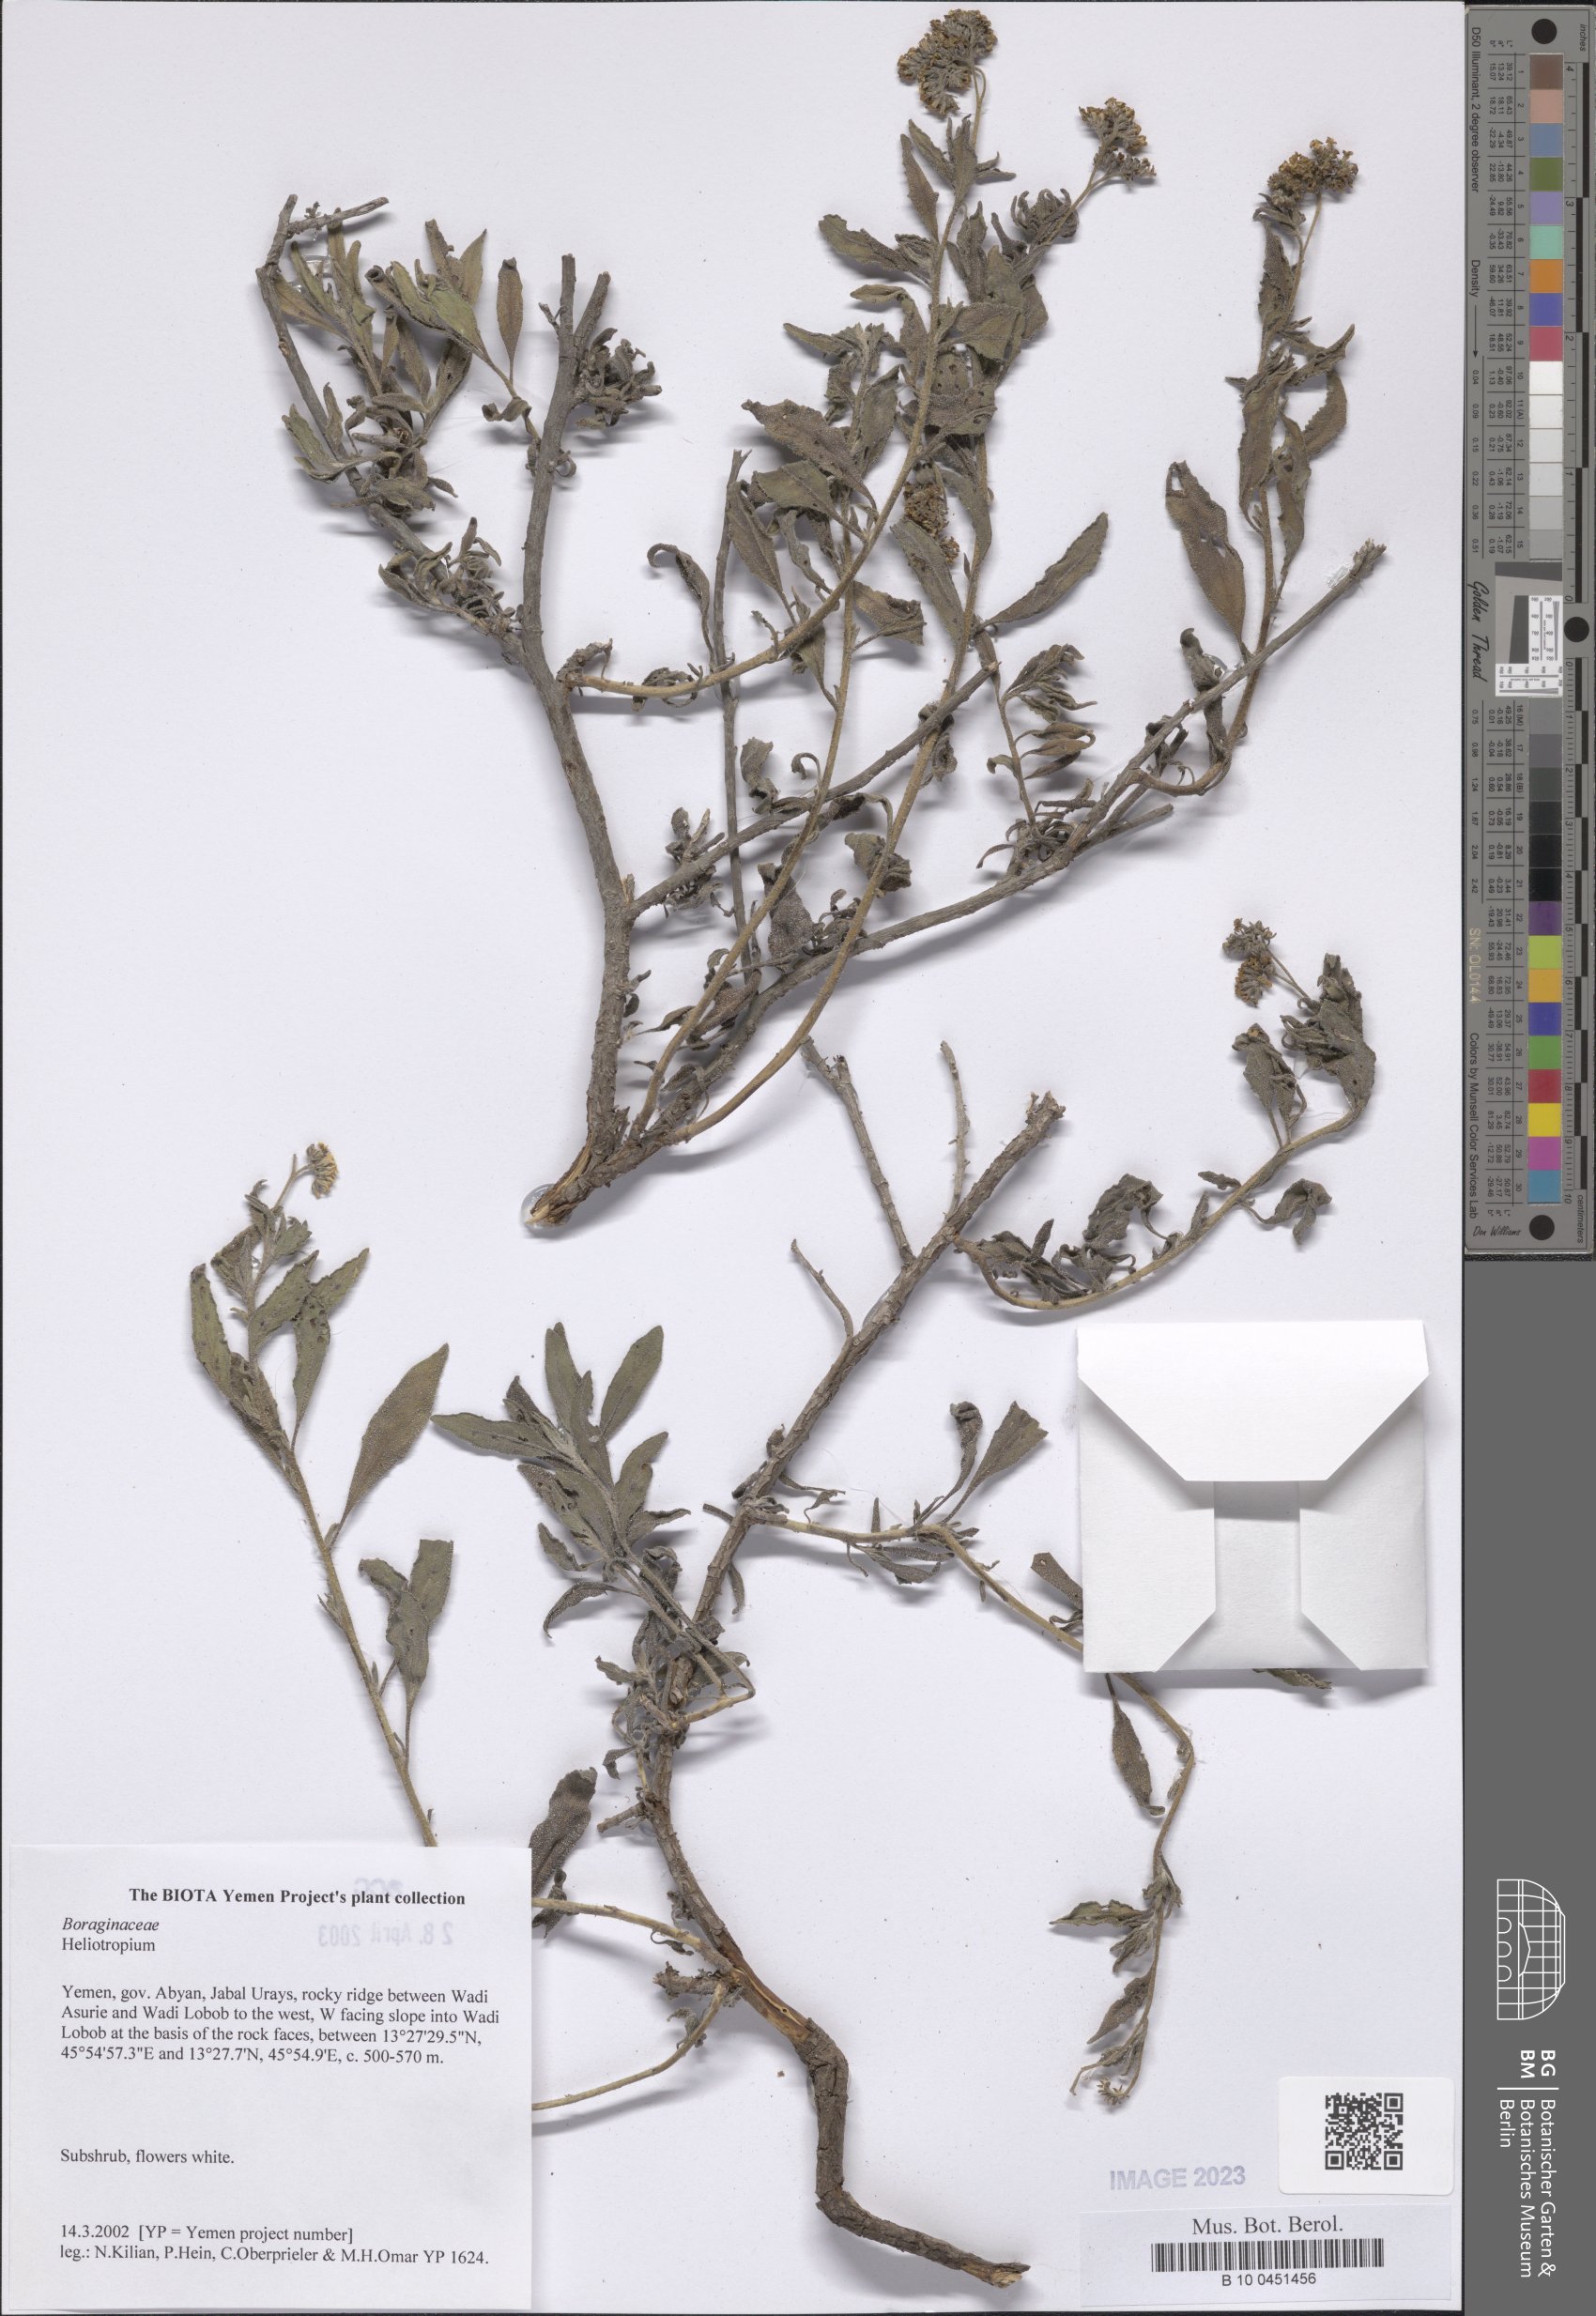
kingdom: Plantae
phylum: Tracheophyta
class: Magnoliopsida
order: Boraginales
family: Heliotropiaceae
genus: Heliotropium
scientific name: Heliotropium
